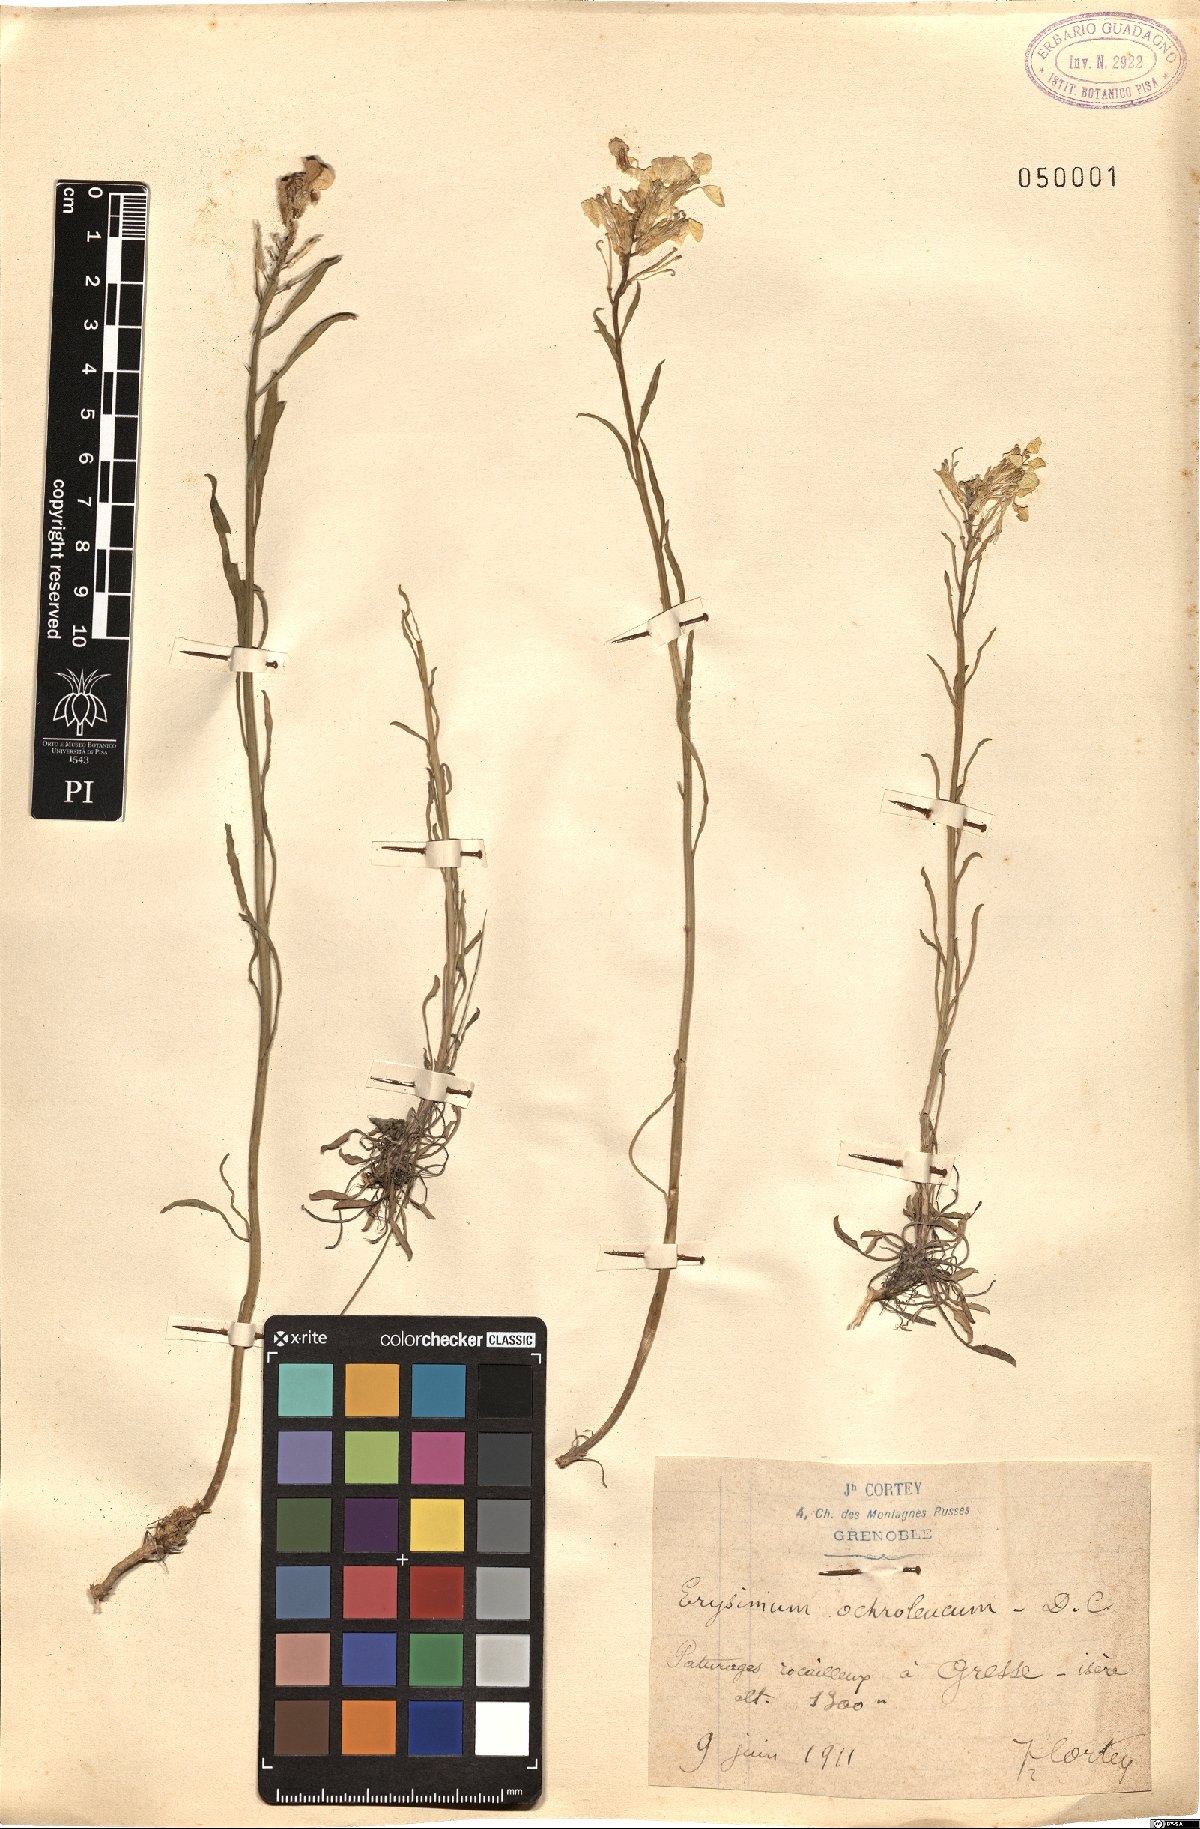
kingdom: Plantae
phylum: Tracheophyta
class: Magnoliopsida
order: Brassicales
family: Brassicaceae
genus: Erysimum
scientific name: Erysimum humile
